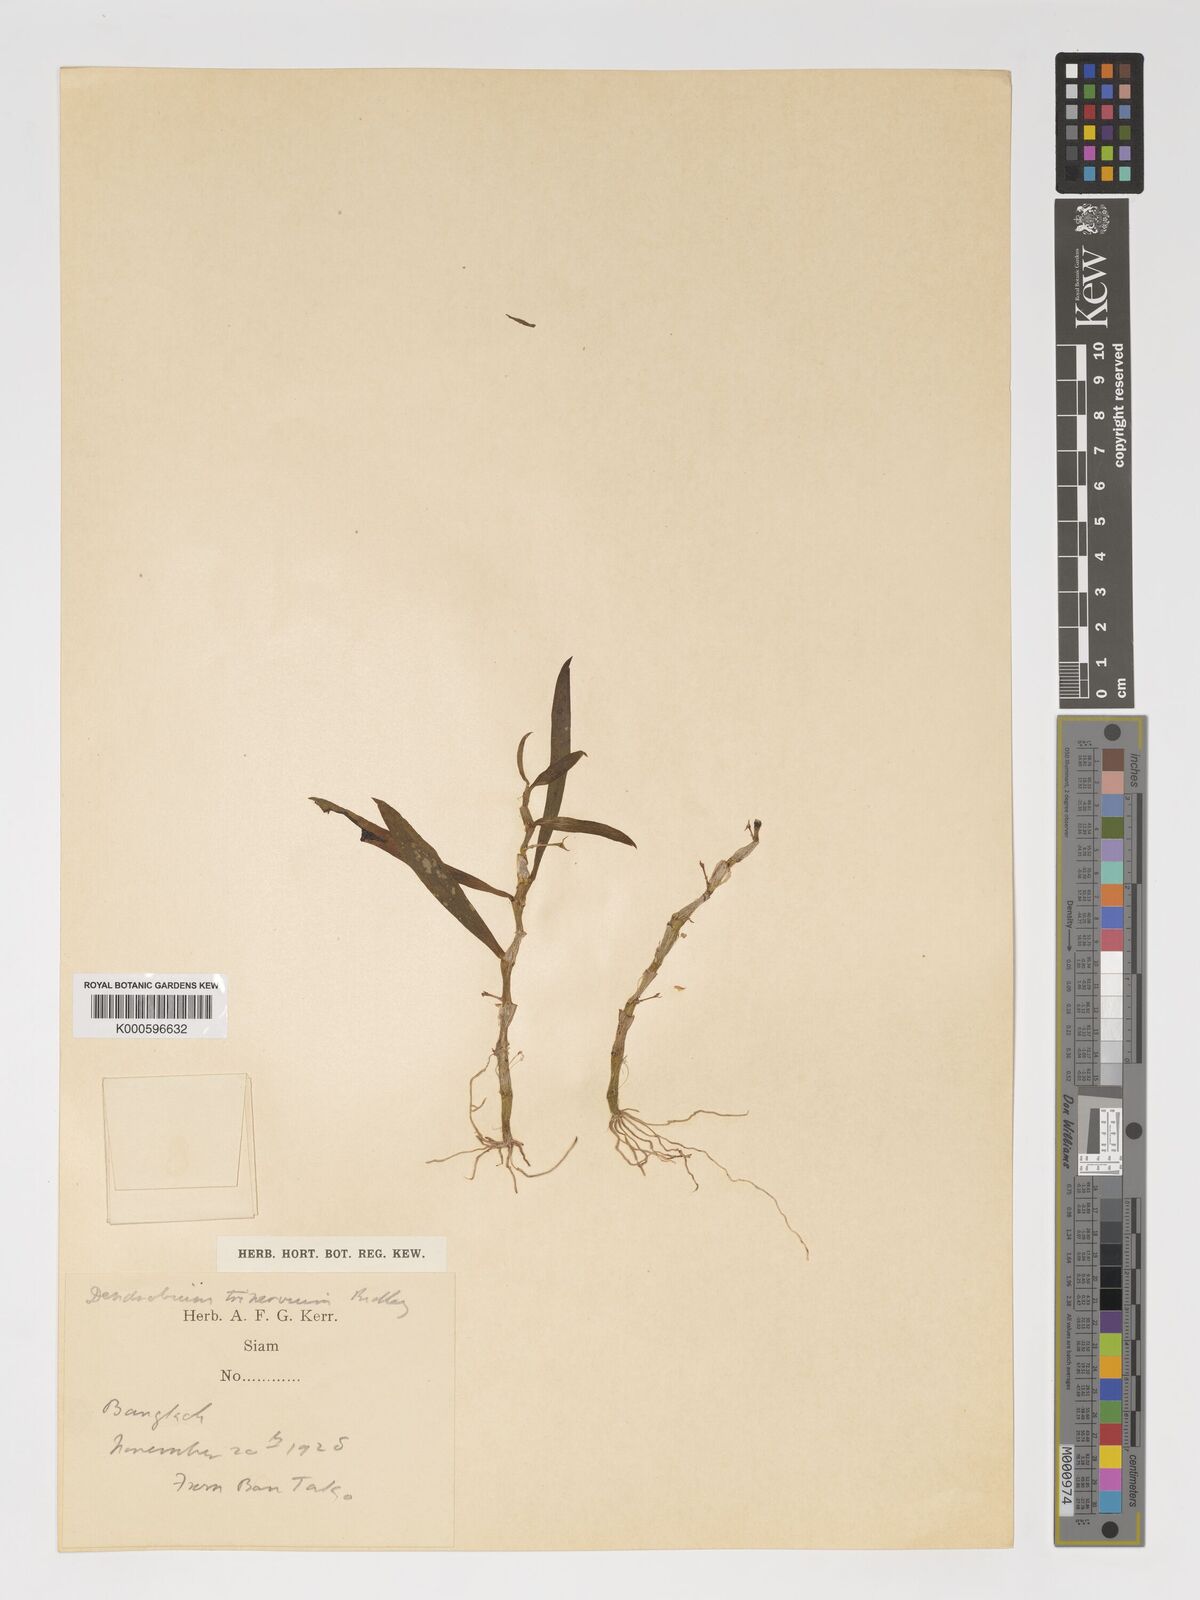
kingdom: Plantae
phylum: Tracheophyta
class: Liliopsida
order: Asparagales
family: Orchidaceae
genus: Dendrobium
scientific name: Dendrobium trinervium
